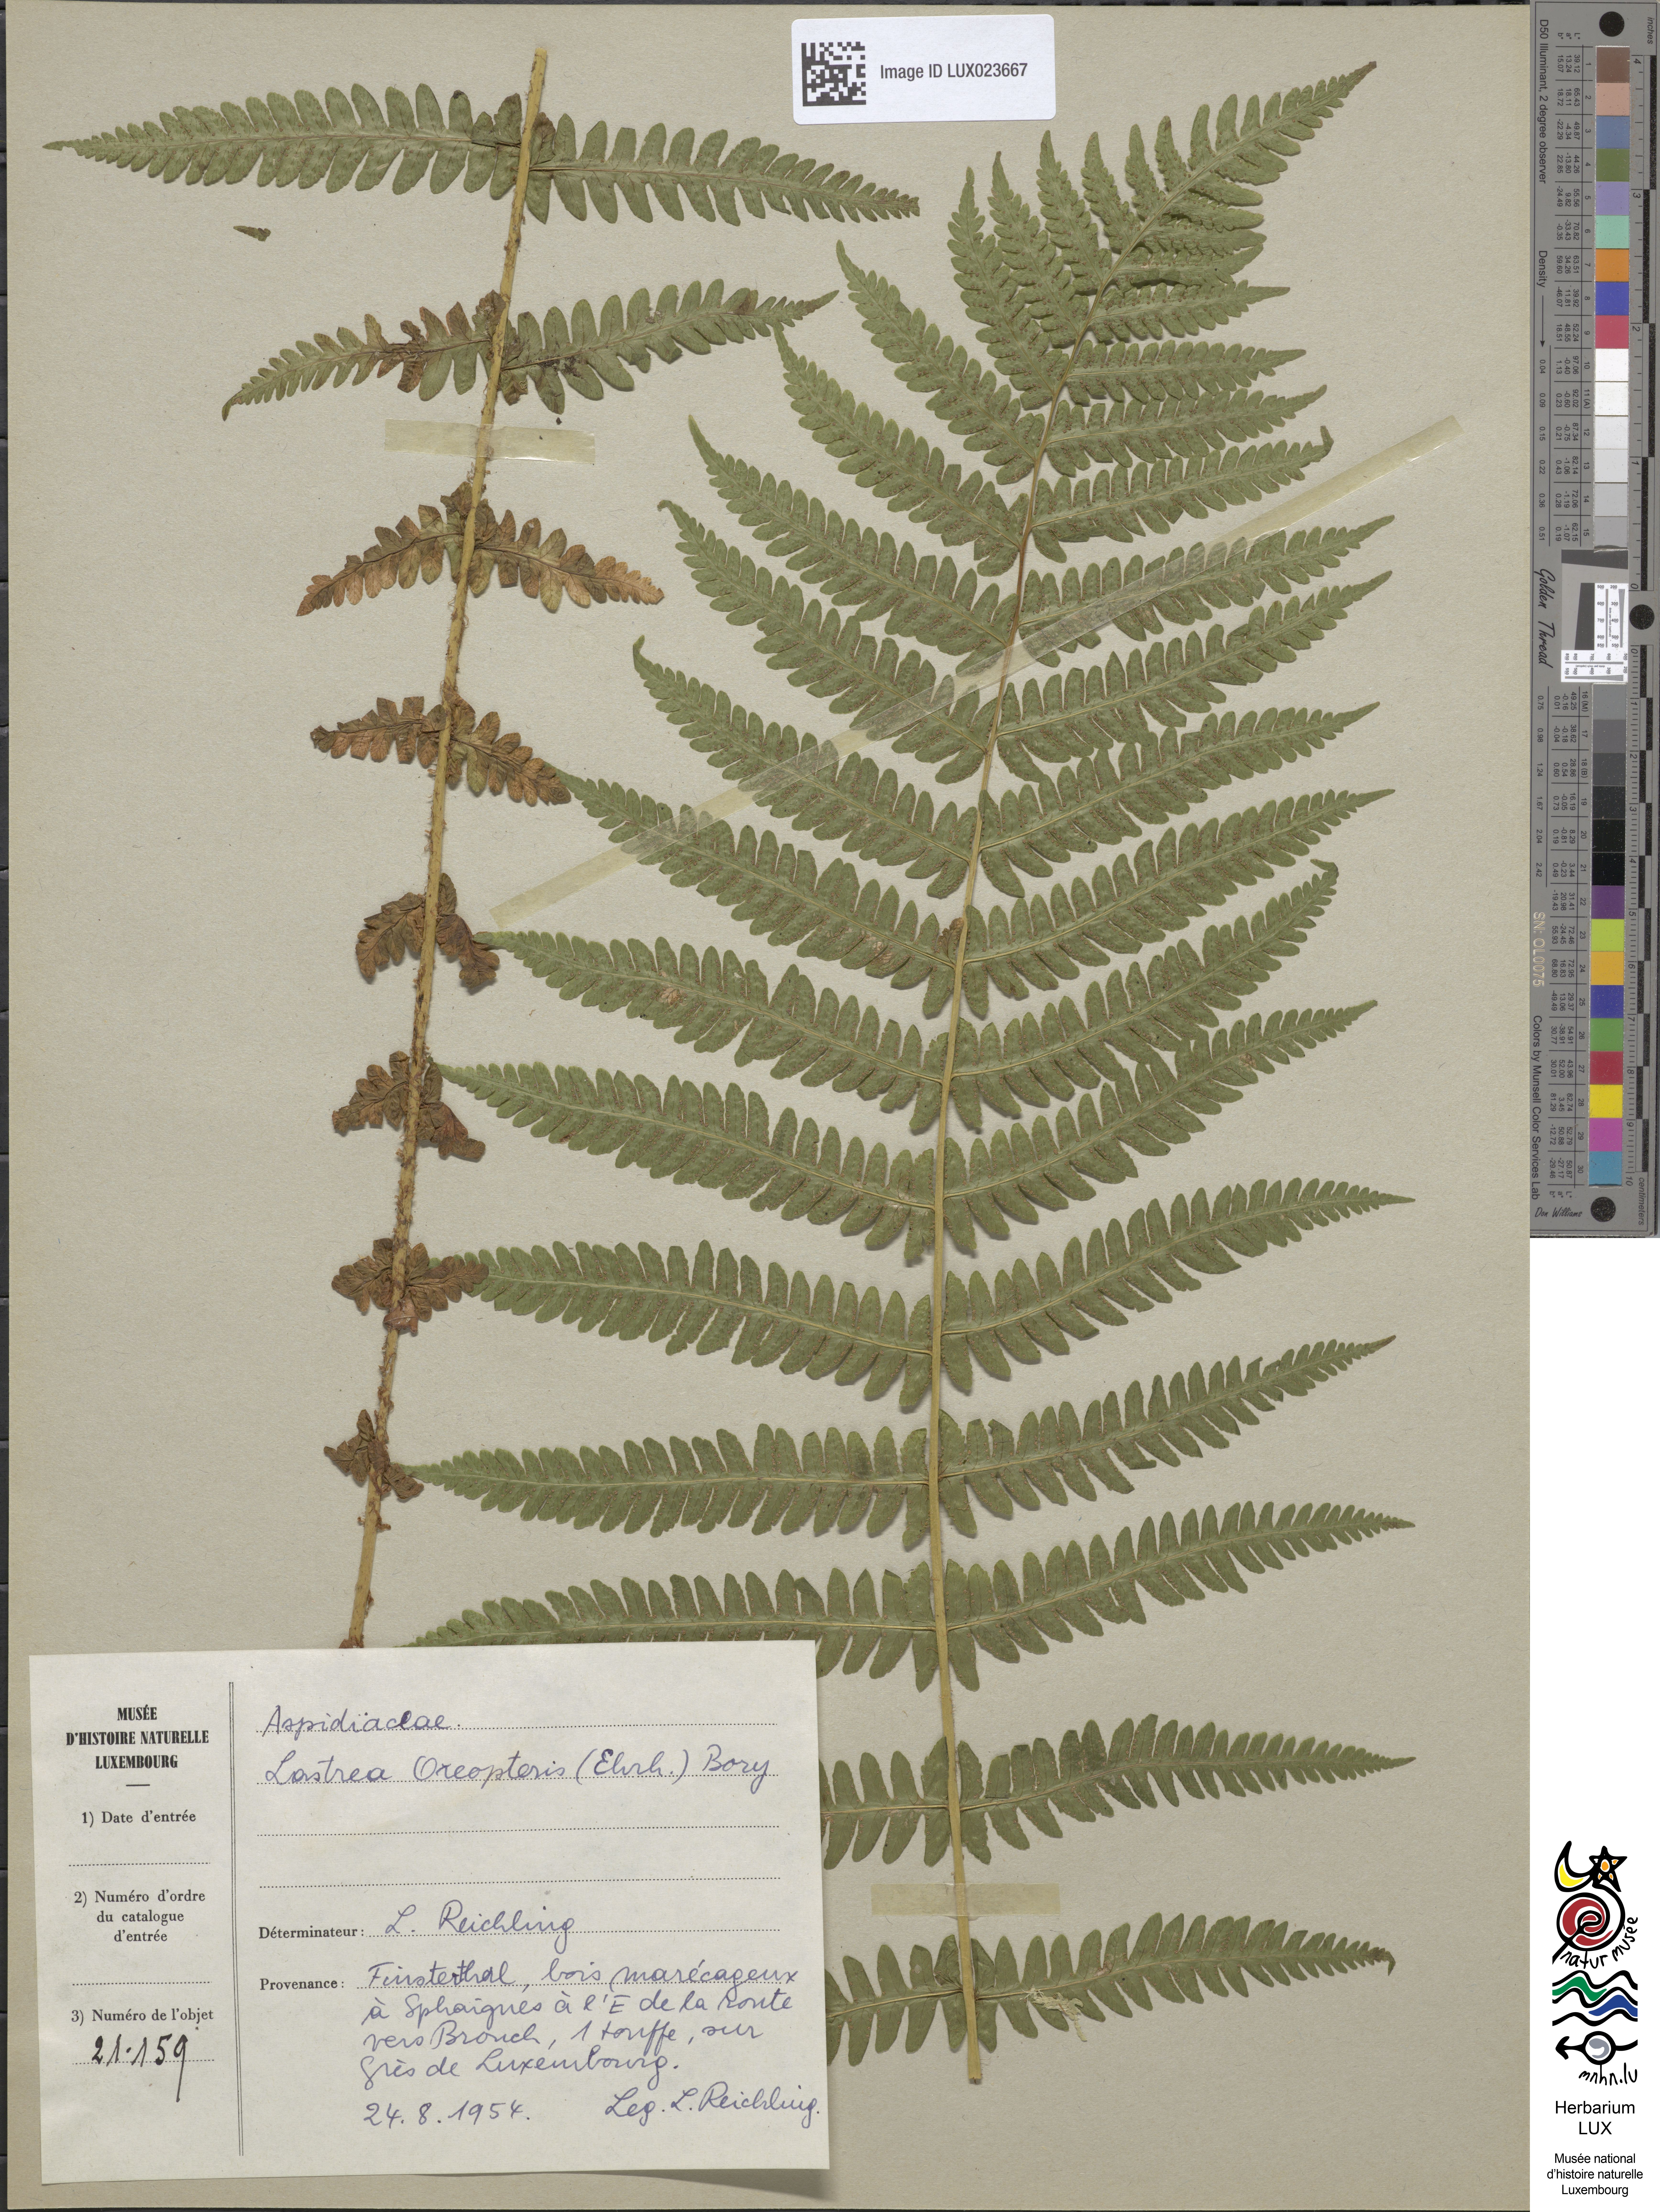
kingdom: Plantae
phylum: Tracheophyta
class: Polypodiopsida
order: Polypodiales
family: Thelypteridaceae
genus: Oreopteris
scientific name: Oreopteris limbosperma
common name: Lemon-scented fern
